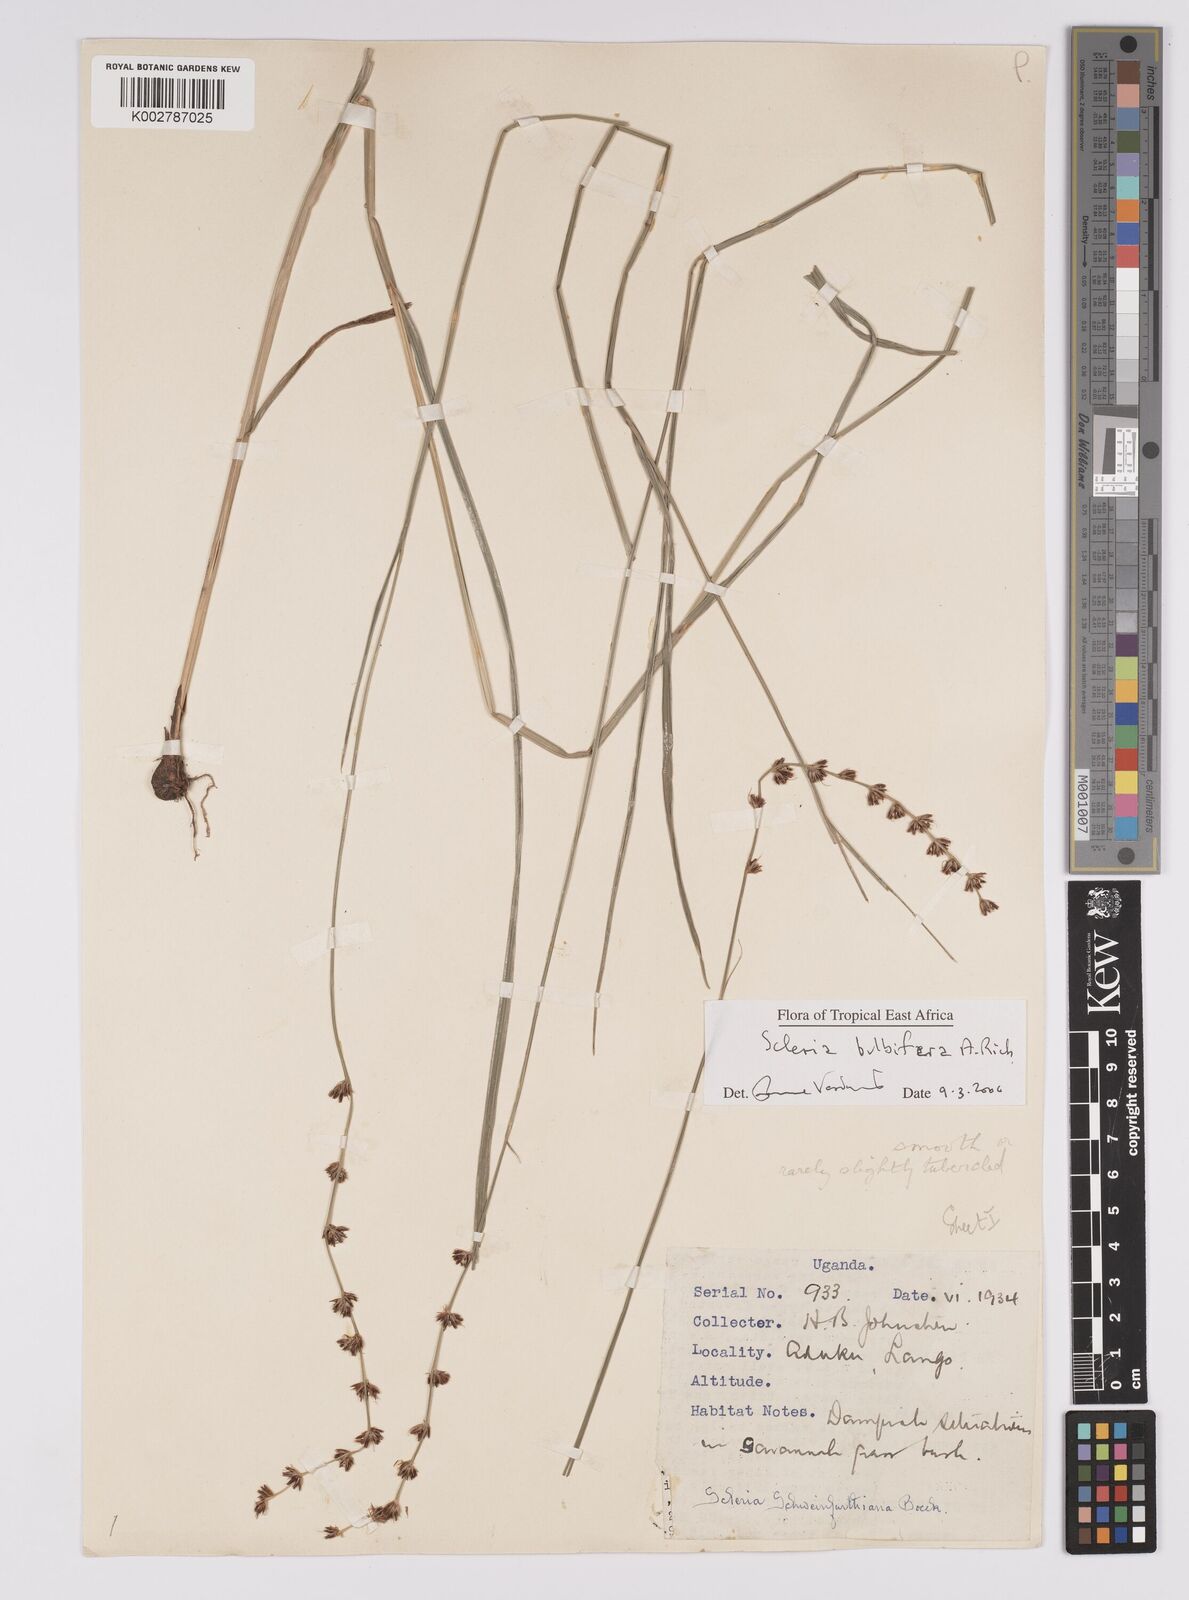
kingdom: Plantae
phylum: Tracheophyta
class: Liliopsida
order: Poales
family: Cyperaceae
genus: Scleria
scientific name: Scleria bulbifera
